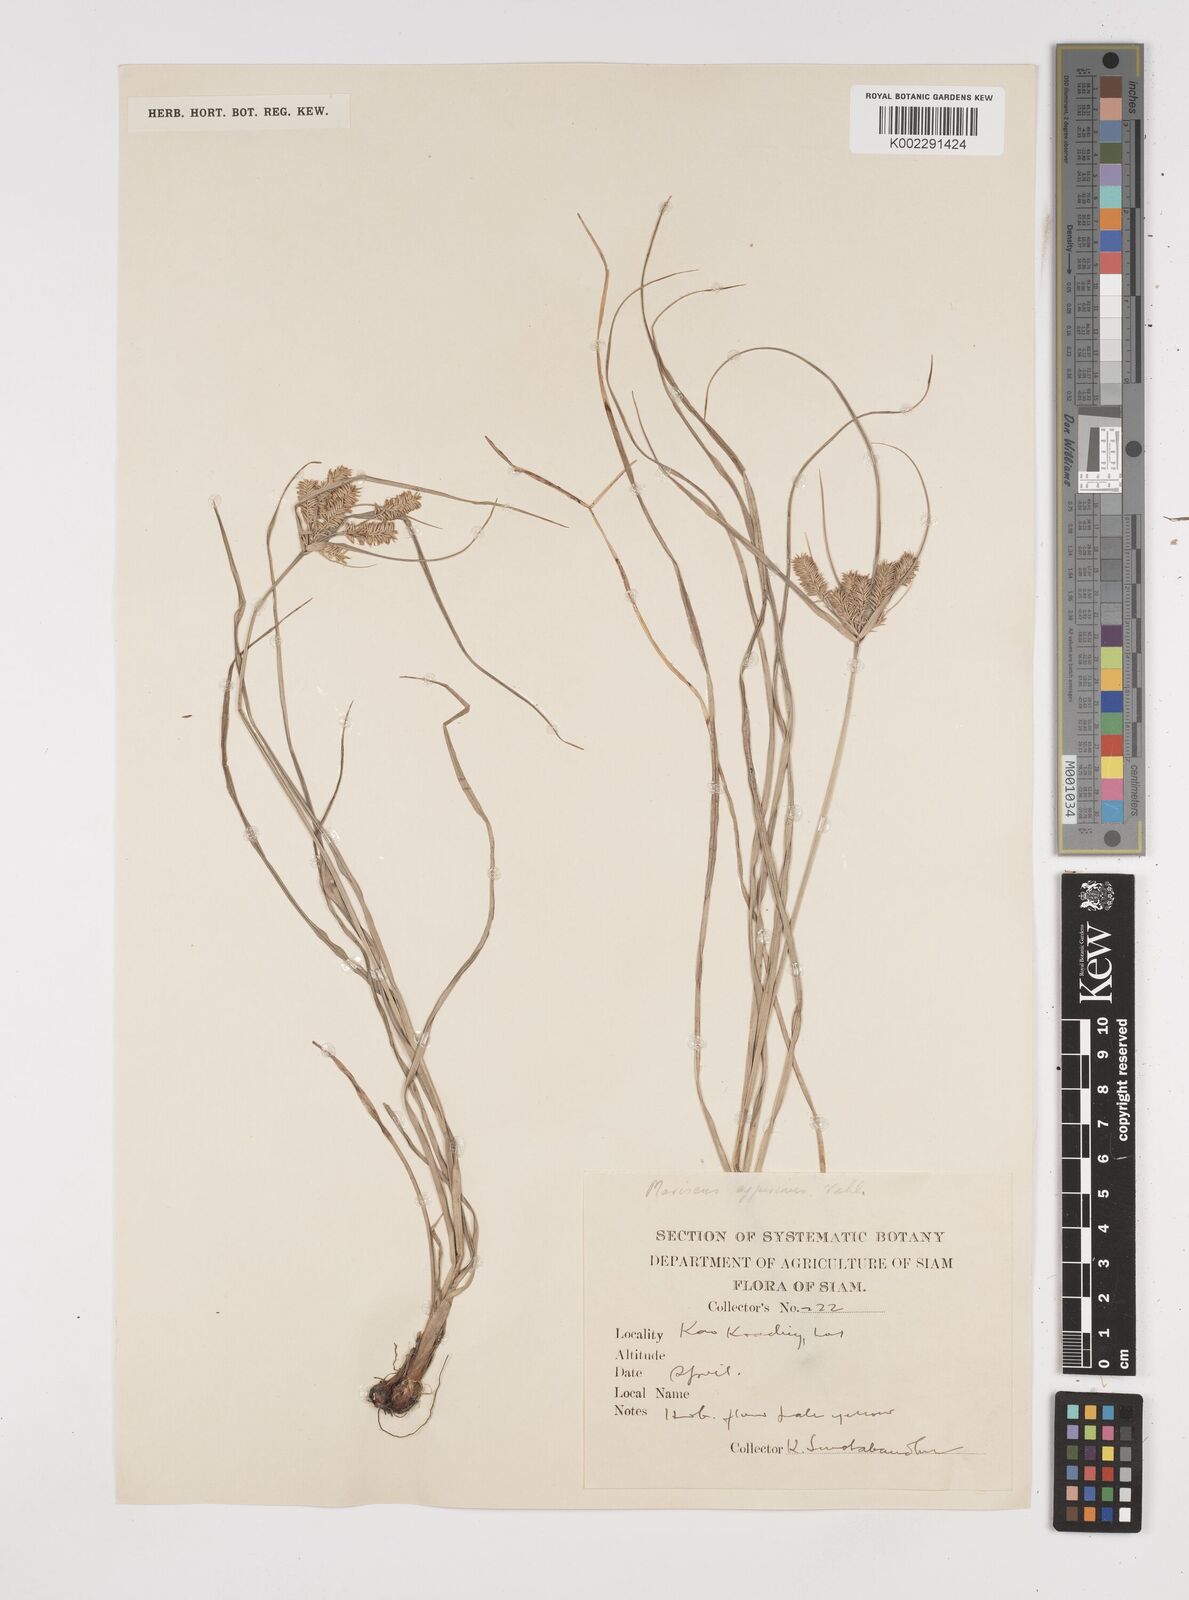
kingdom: Plantae
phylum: Tracheophyta
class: Liliopsida
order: Poales
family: Cyperaceae
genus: Cyperus
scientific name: Cyperus cyperoides
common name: Pacific island flat sedge
